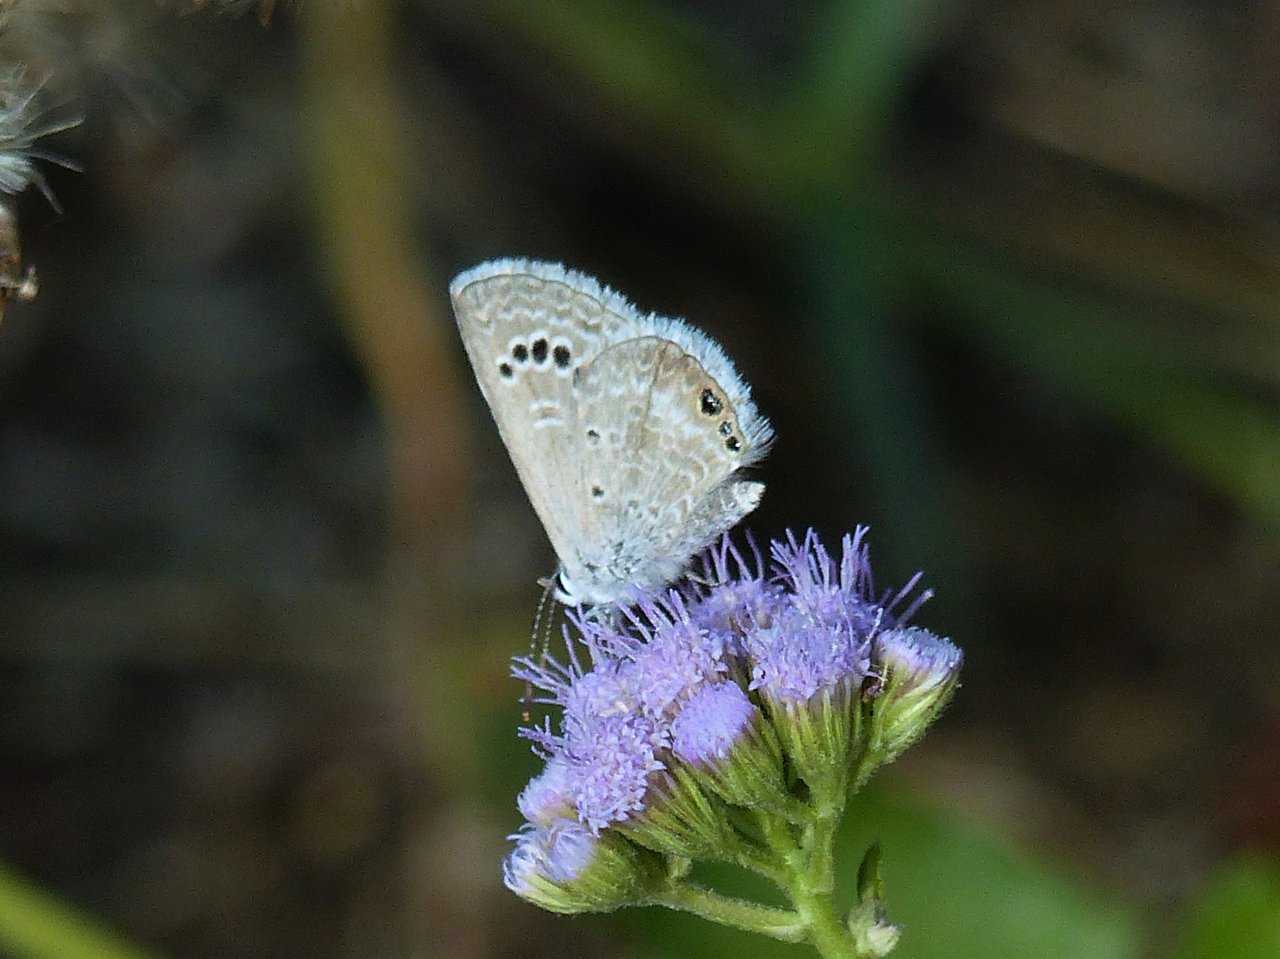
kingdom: Animalia
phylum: Arthropoda
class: Insecta
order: Lepidoptera
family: Lycaenidae
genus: Echinargus
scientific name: Echinargus isola
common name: Reakirt's Blue
